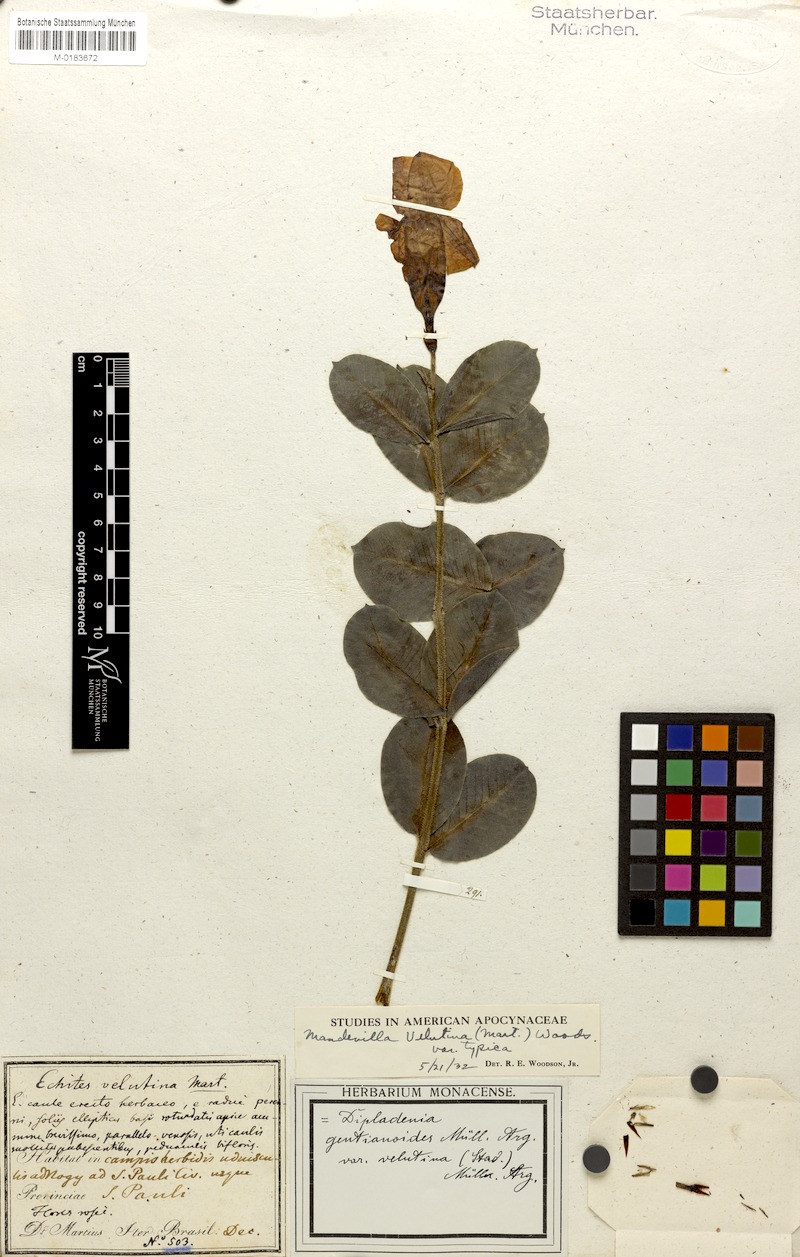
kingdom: Plantae
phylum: Tracheophyta
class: Magnoliopsida
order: Gentianales
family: Apocynaceae
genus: Mandevilla
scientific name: Mandevilla pohliana
